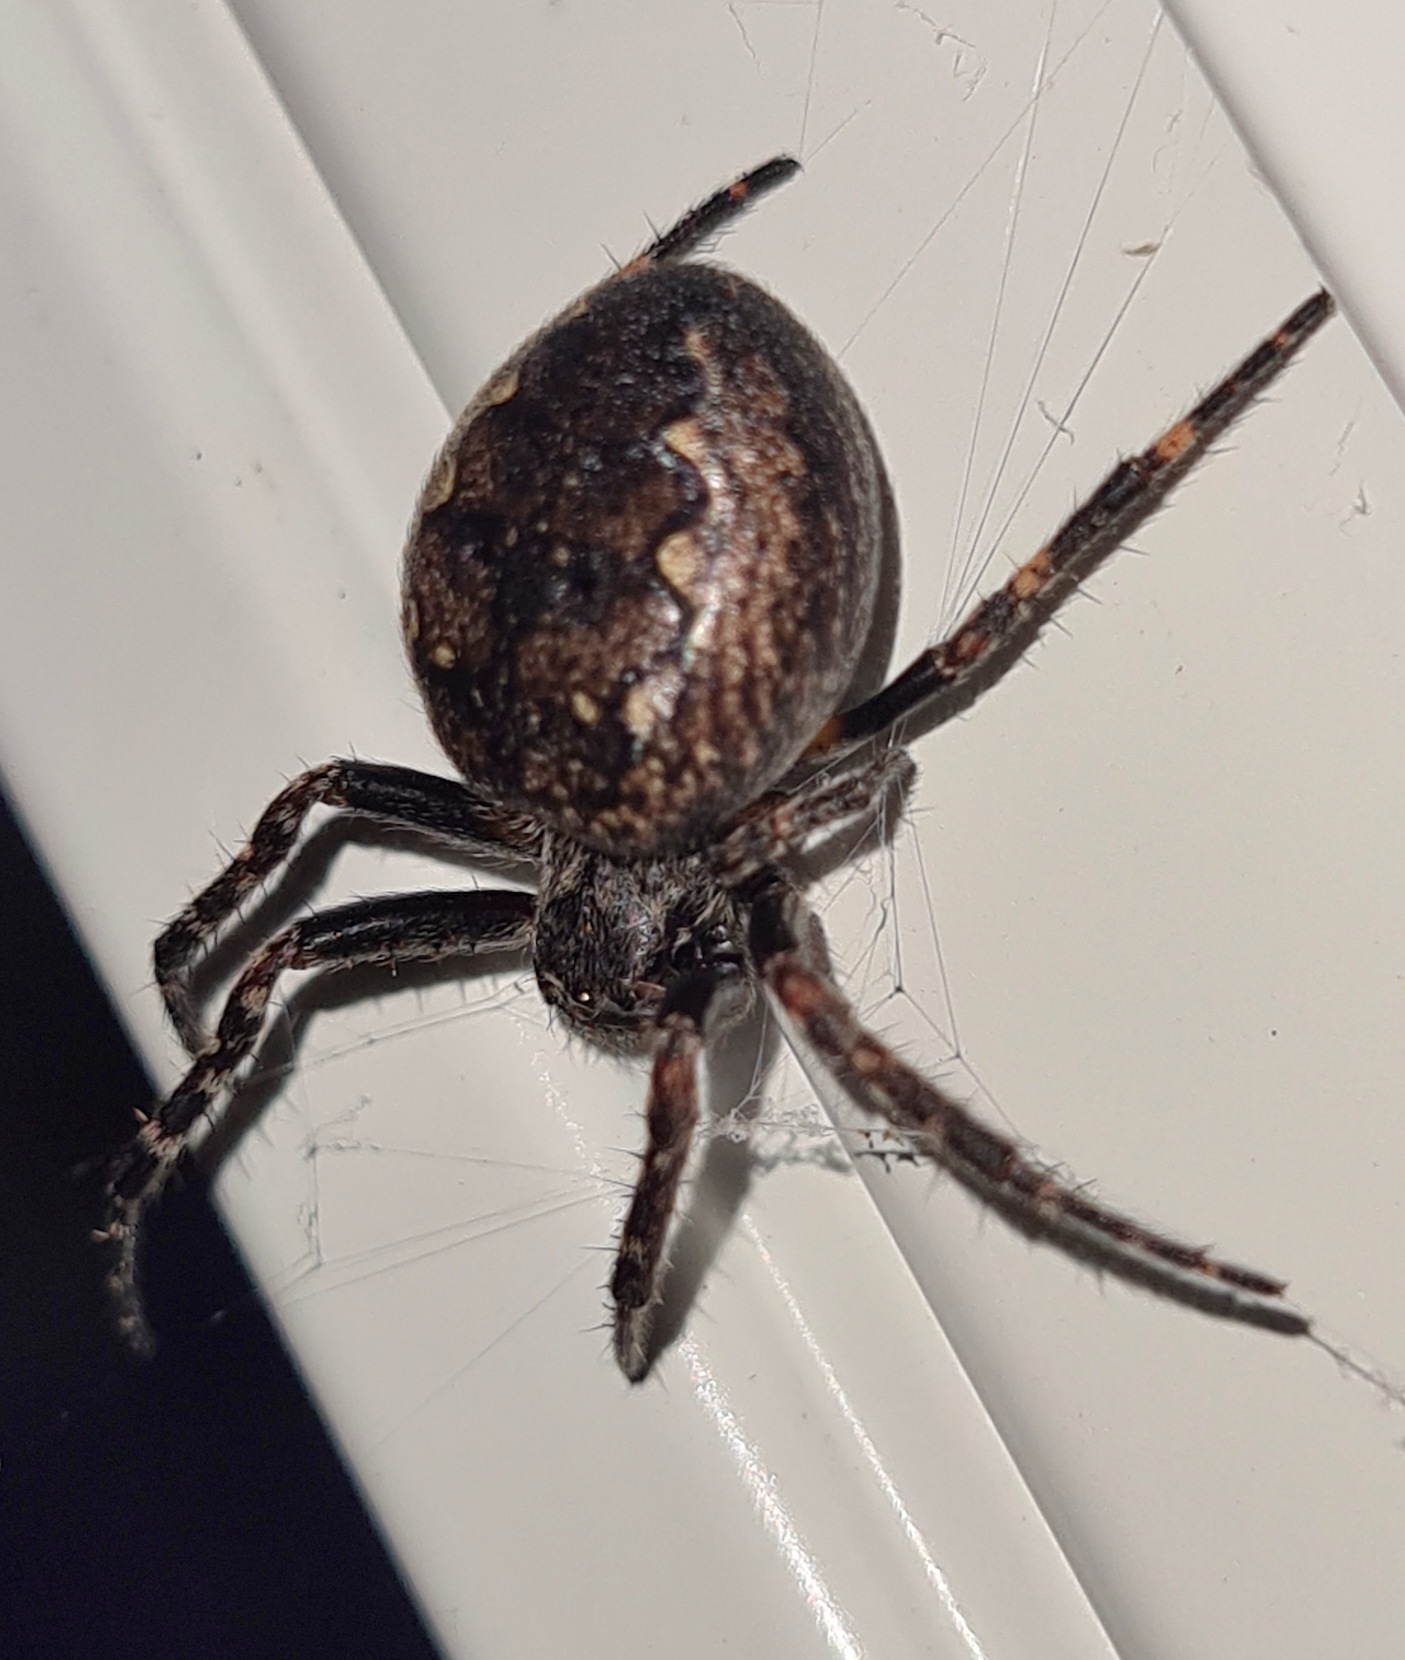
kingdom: Animalia
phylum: Arthropoda
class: Arachnida
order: Araneae
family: Araneidae
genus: Nuctenea
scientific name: Nuctenea umbratica
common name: Flad hjulspinder
